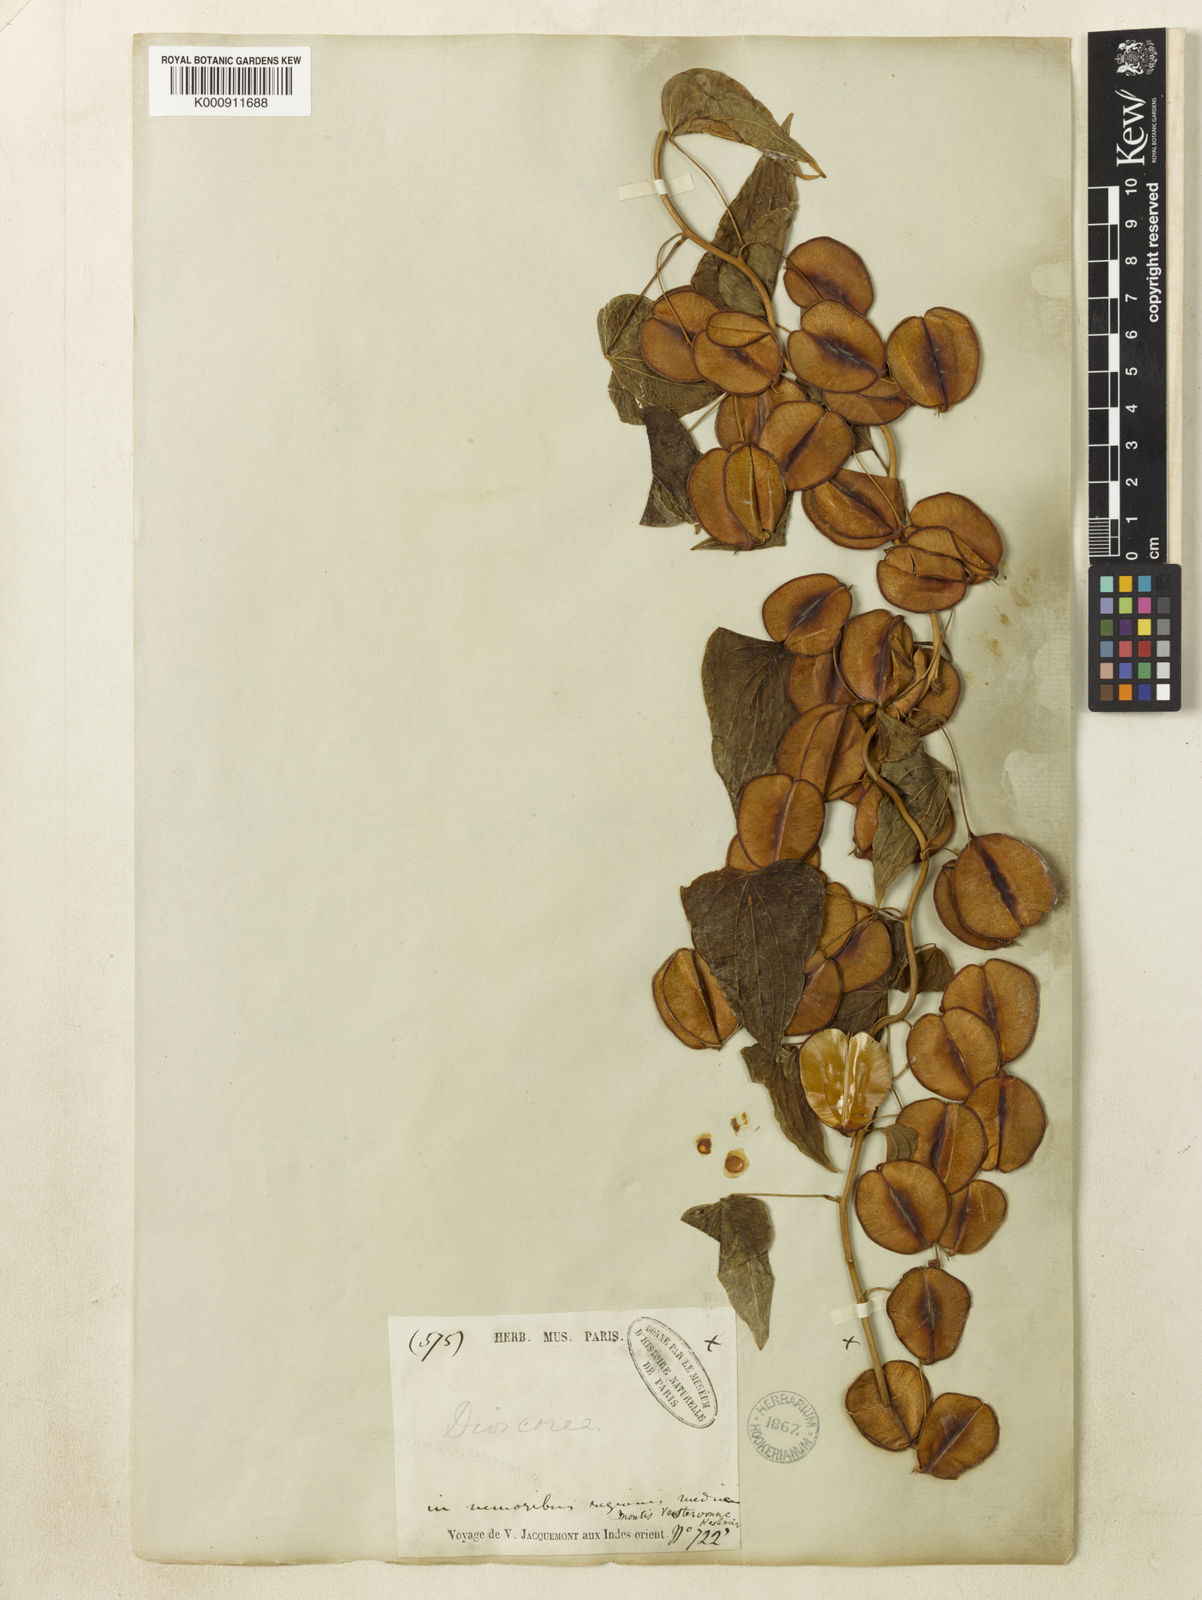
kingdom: Plantae
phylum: Tracheophyta
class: Liliopsida
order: Dioscoreales
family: Dioscoreaceae
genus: Dioscorea
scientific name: Dioscorea
